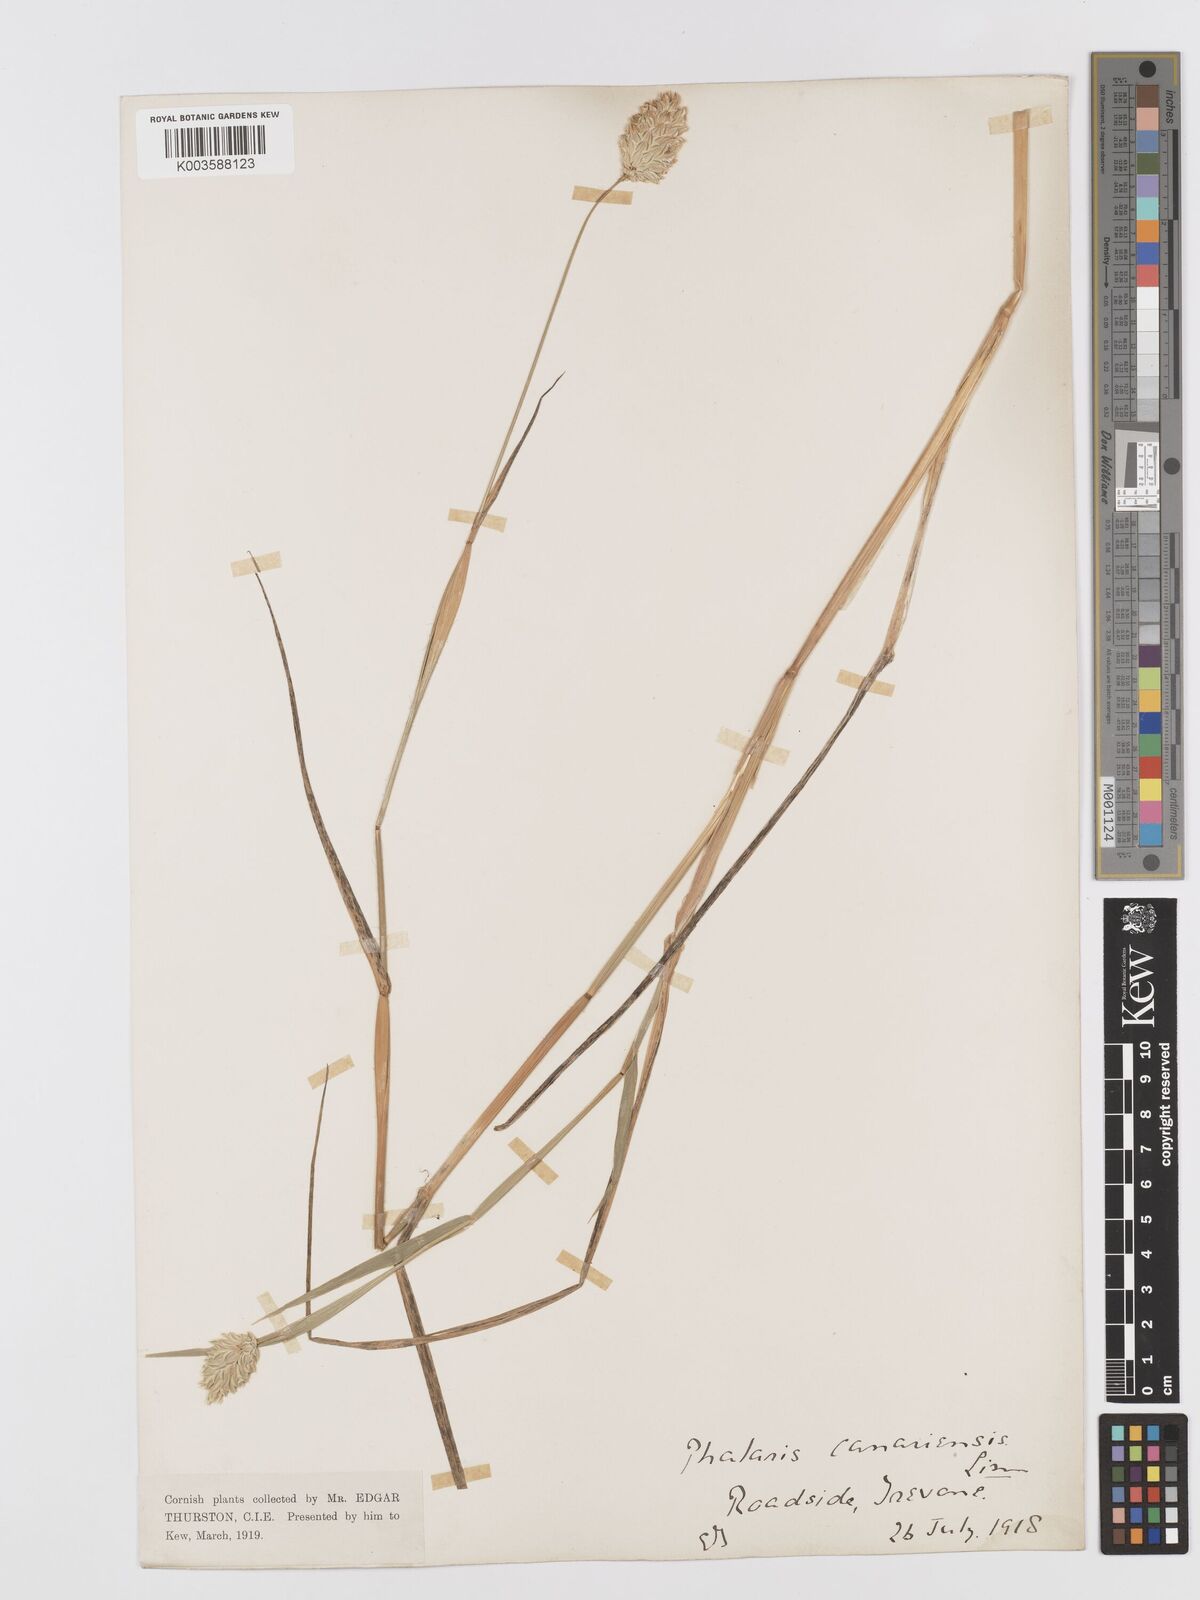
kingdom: Plantae
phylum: Tracheophyta
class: Liliopsida
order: Poales
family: Poaceae
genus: Phalaris
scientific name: Phalaris canariensis
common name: Annual canarygrass
